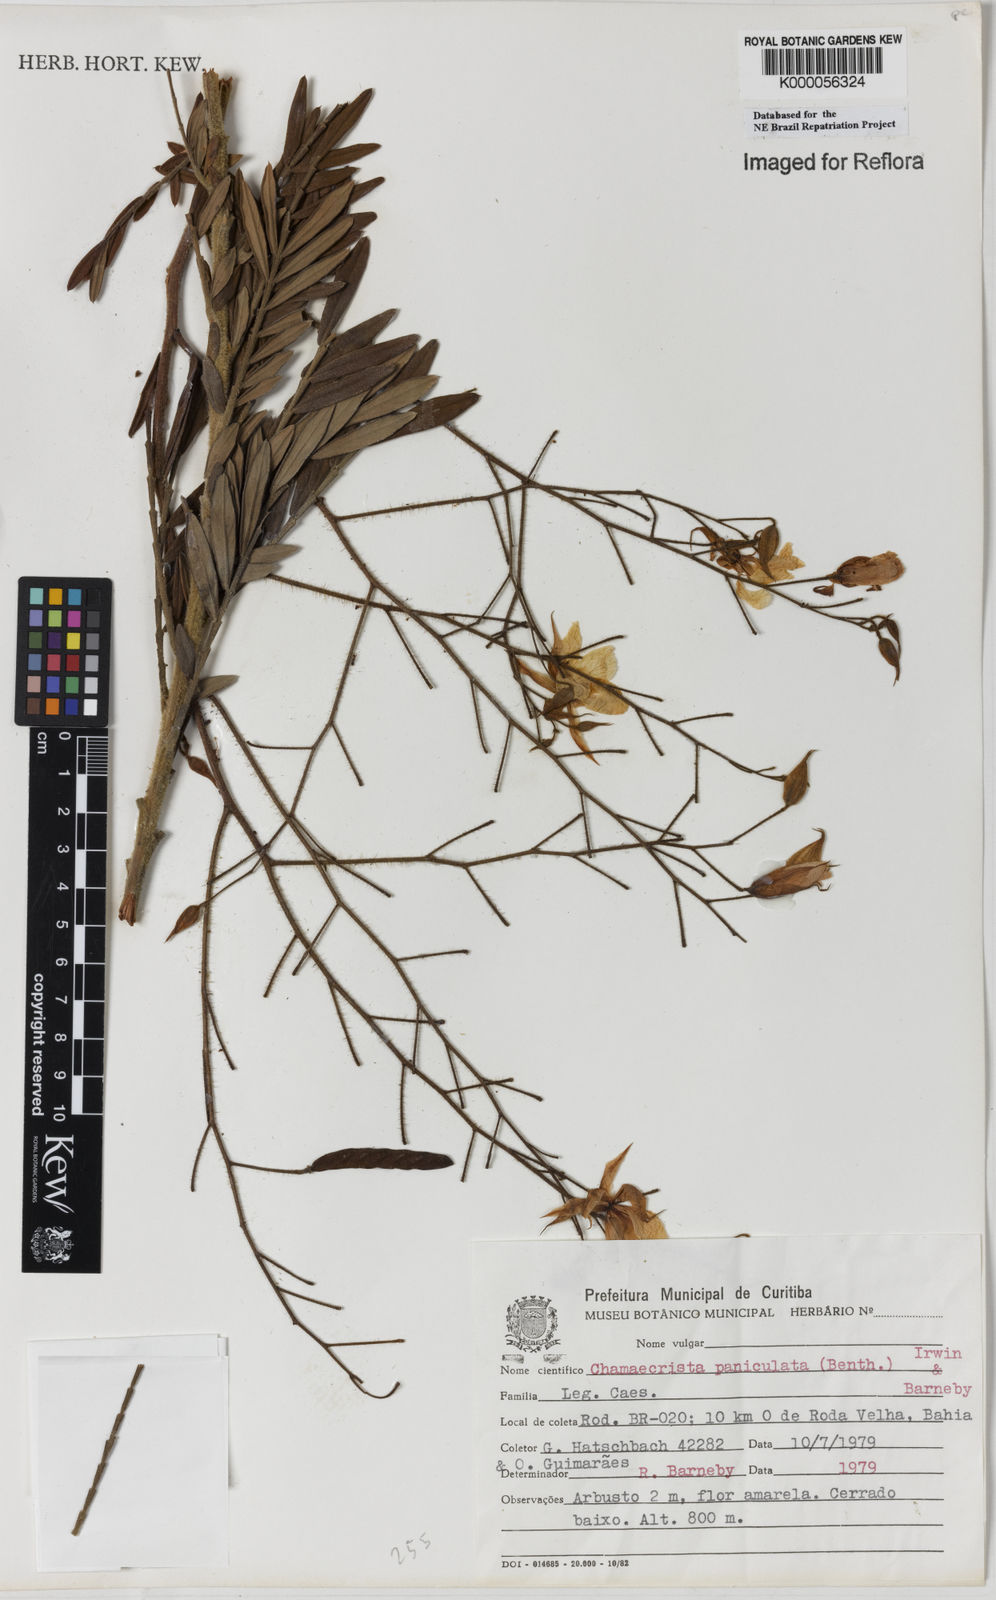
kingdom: Plantae
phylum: Tracheophyta
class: Magnoliopsida
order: Fabales
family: Fabaceae
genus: Chamaecrista
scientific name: Chamaecrista paniculata
